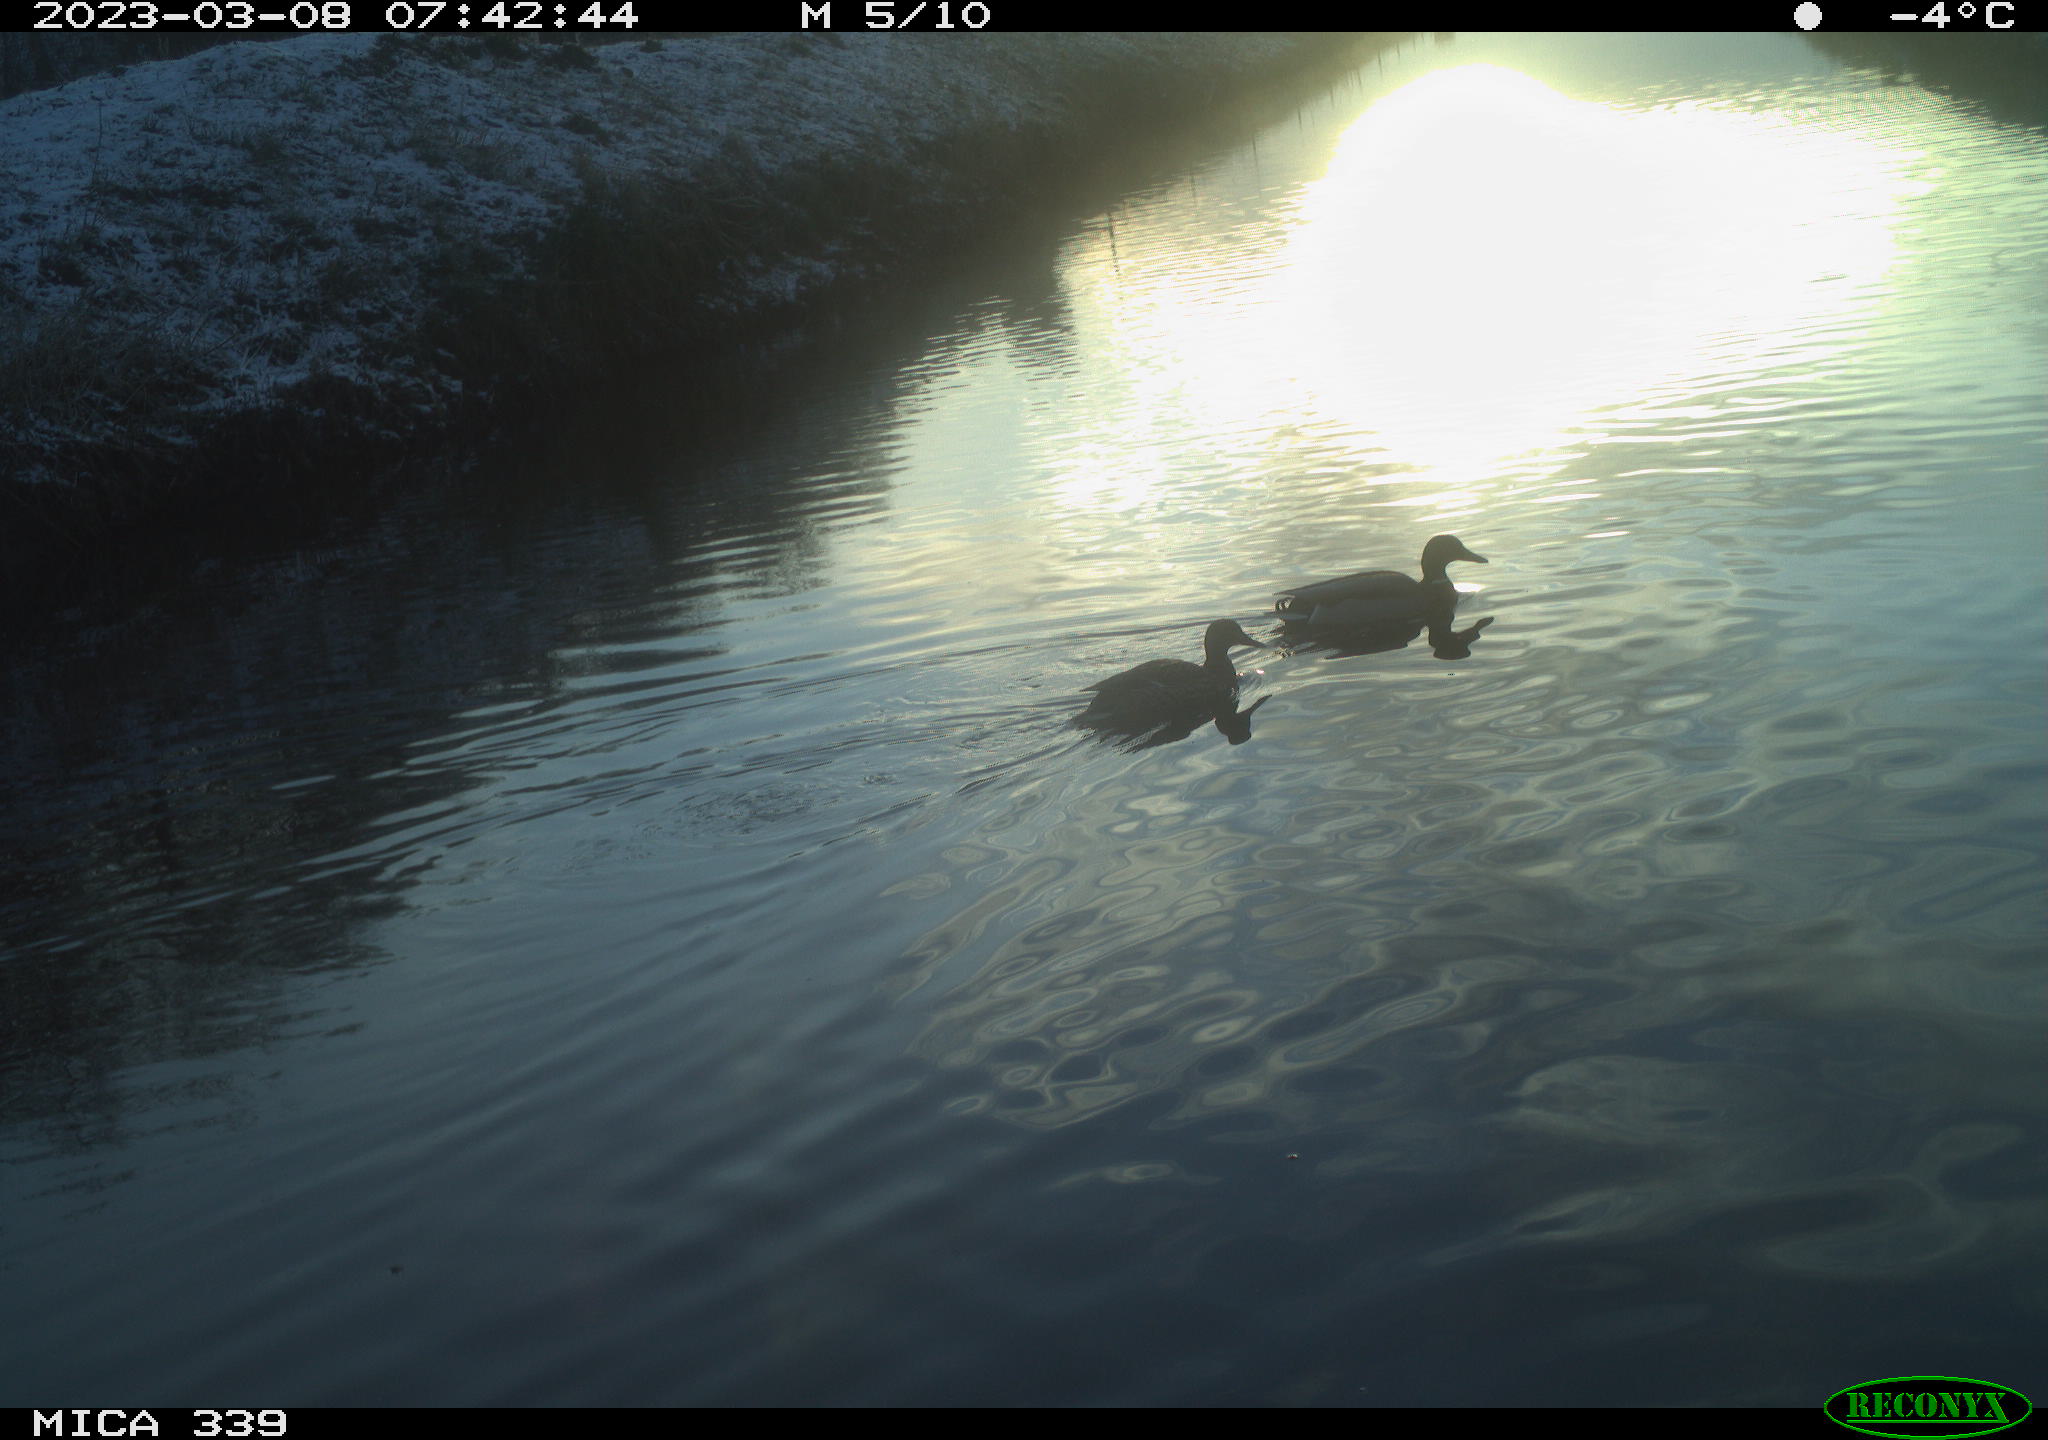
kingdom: Animalia
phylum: Chordata
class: Aves
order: Anseriformes
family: Anatidae
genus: Anas
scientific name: Anas
